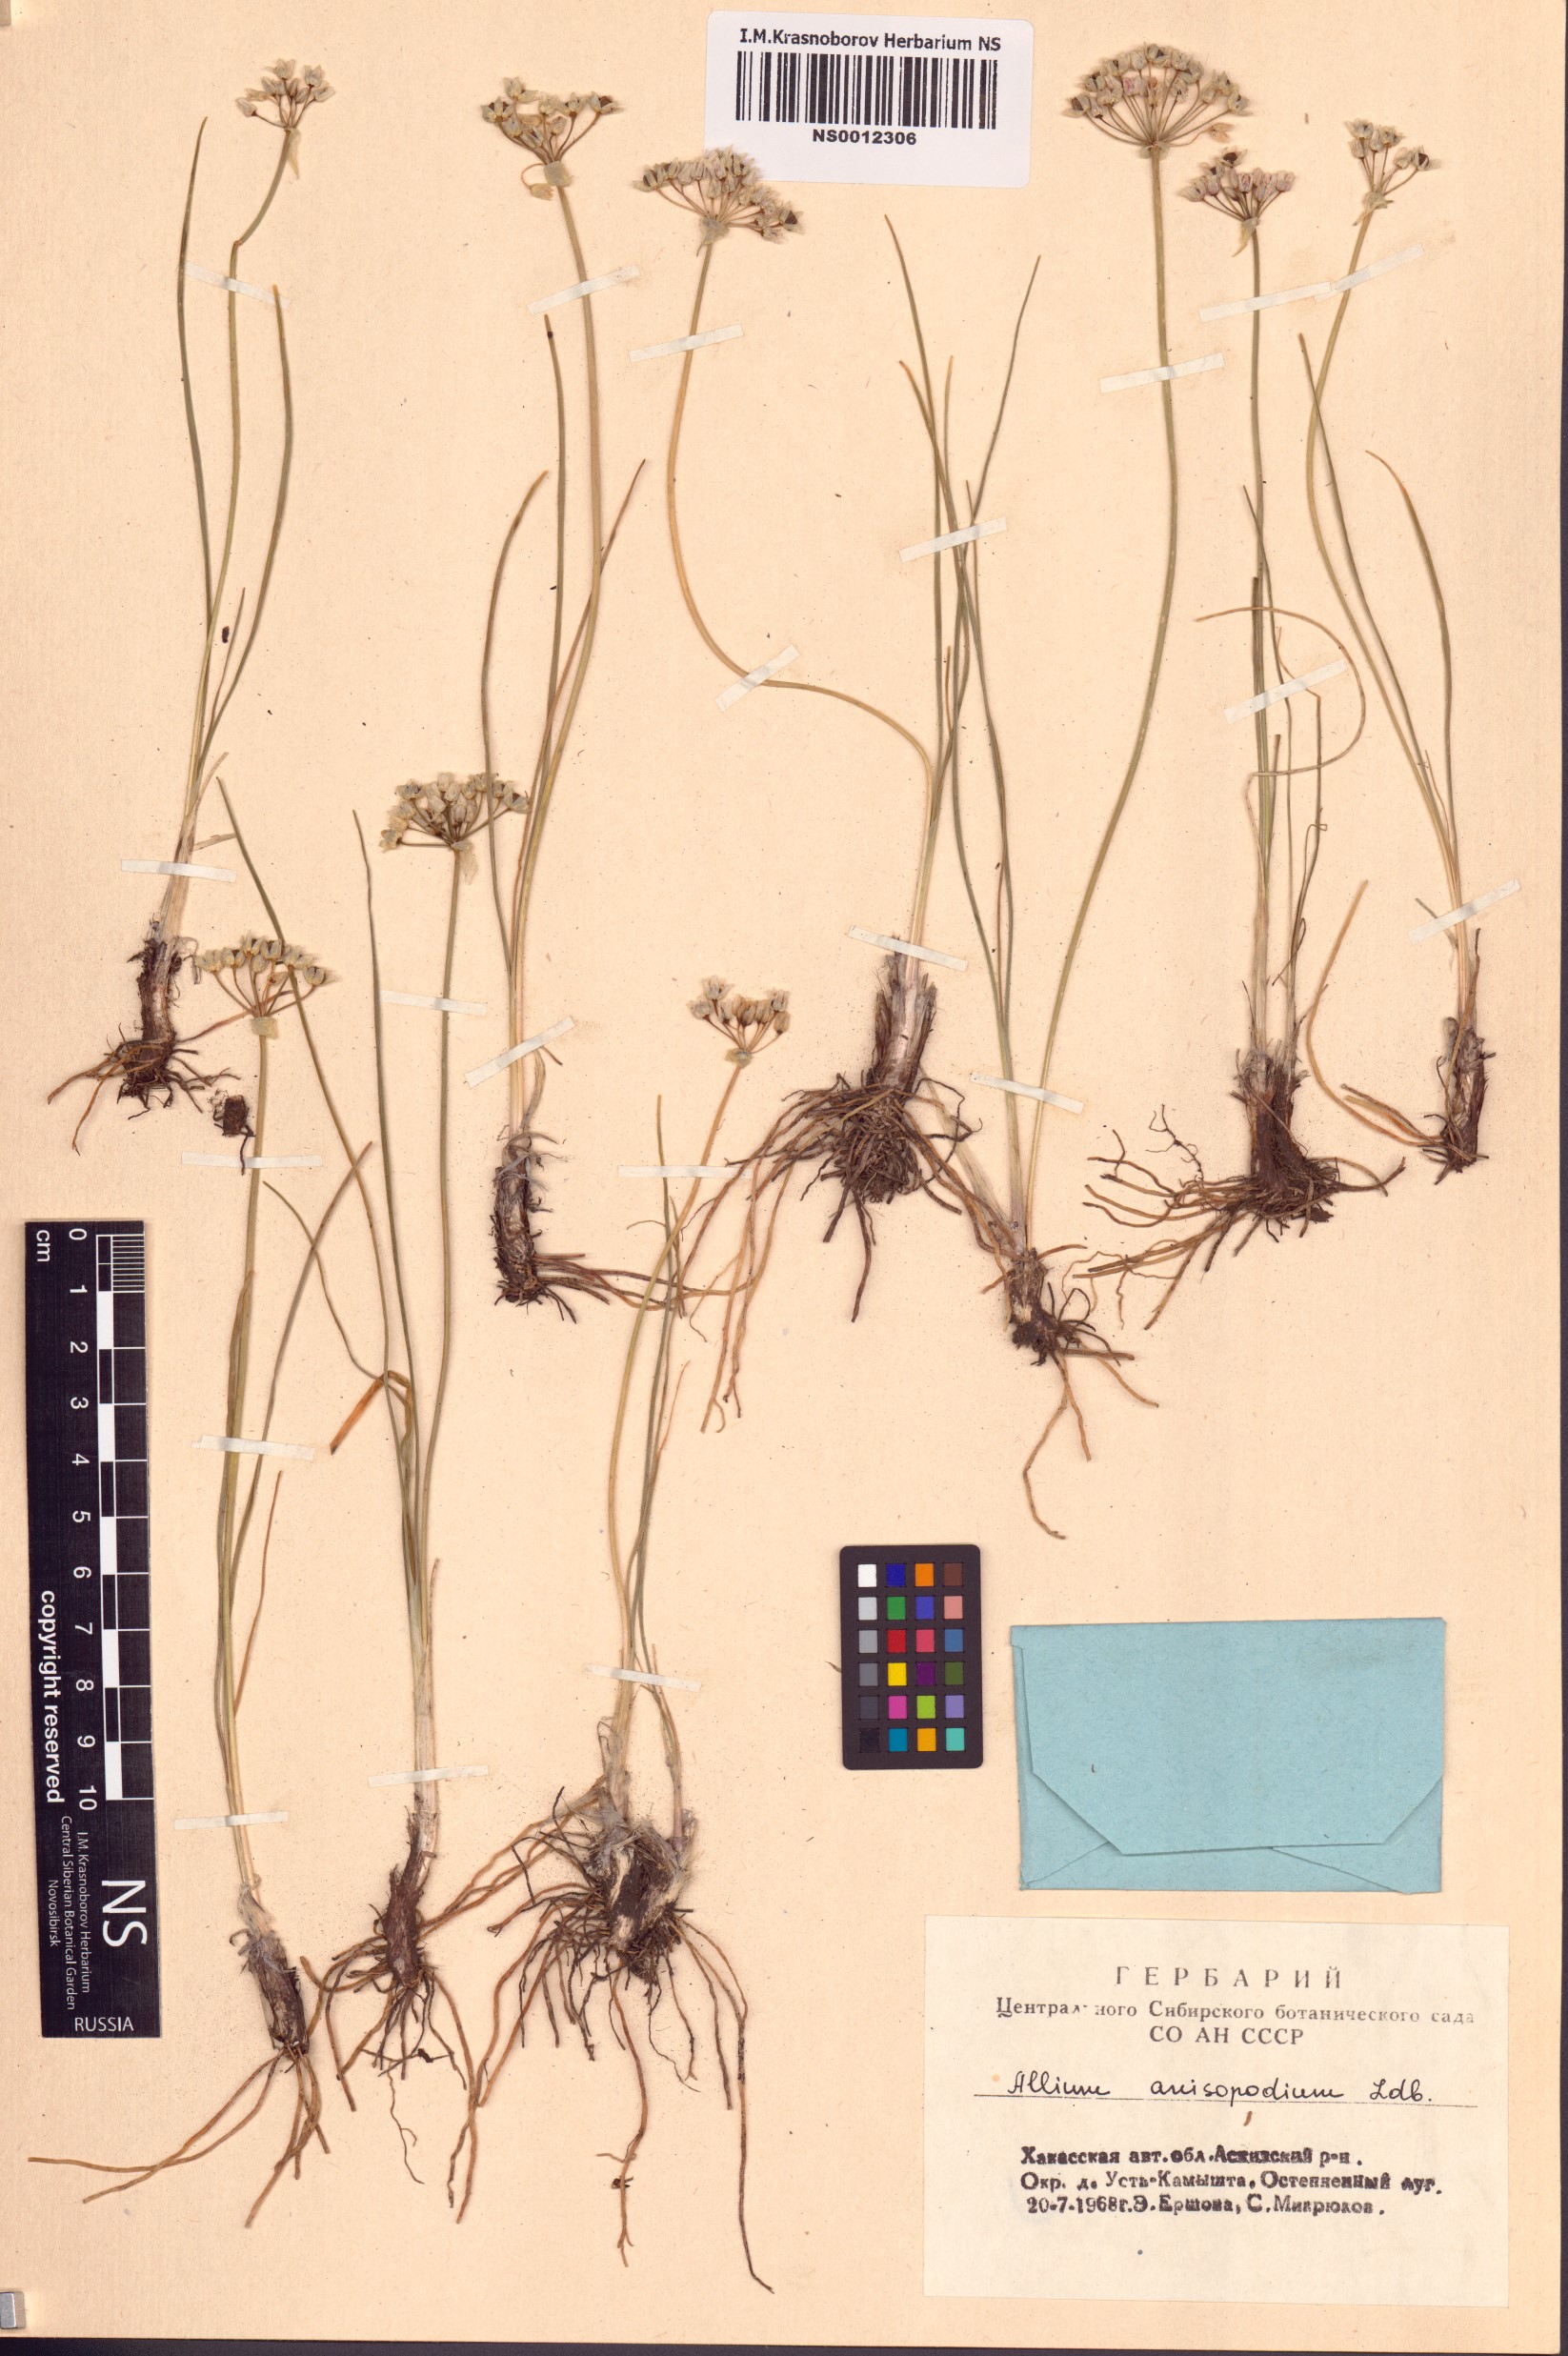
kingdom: Plantae
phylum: Tracheophyta
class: Liliopsida
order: Asparagales
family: Amaryllidaceae
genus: Allium
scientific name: Allium anisopodium
